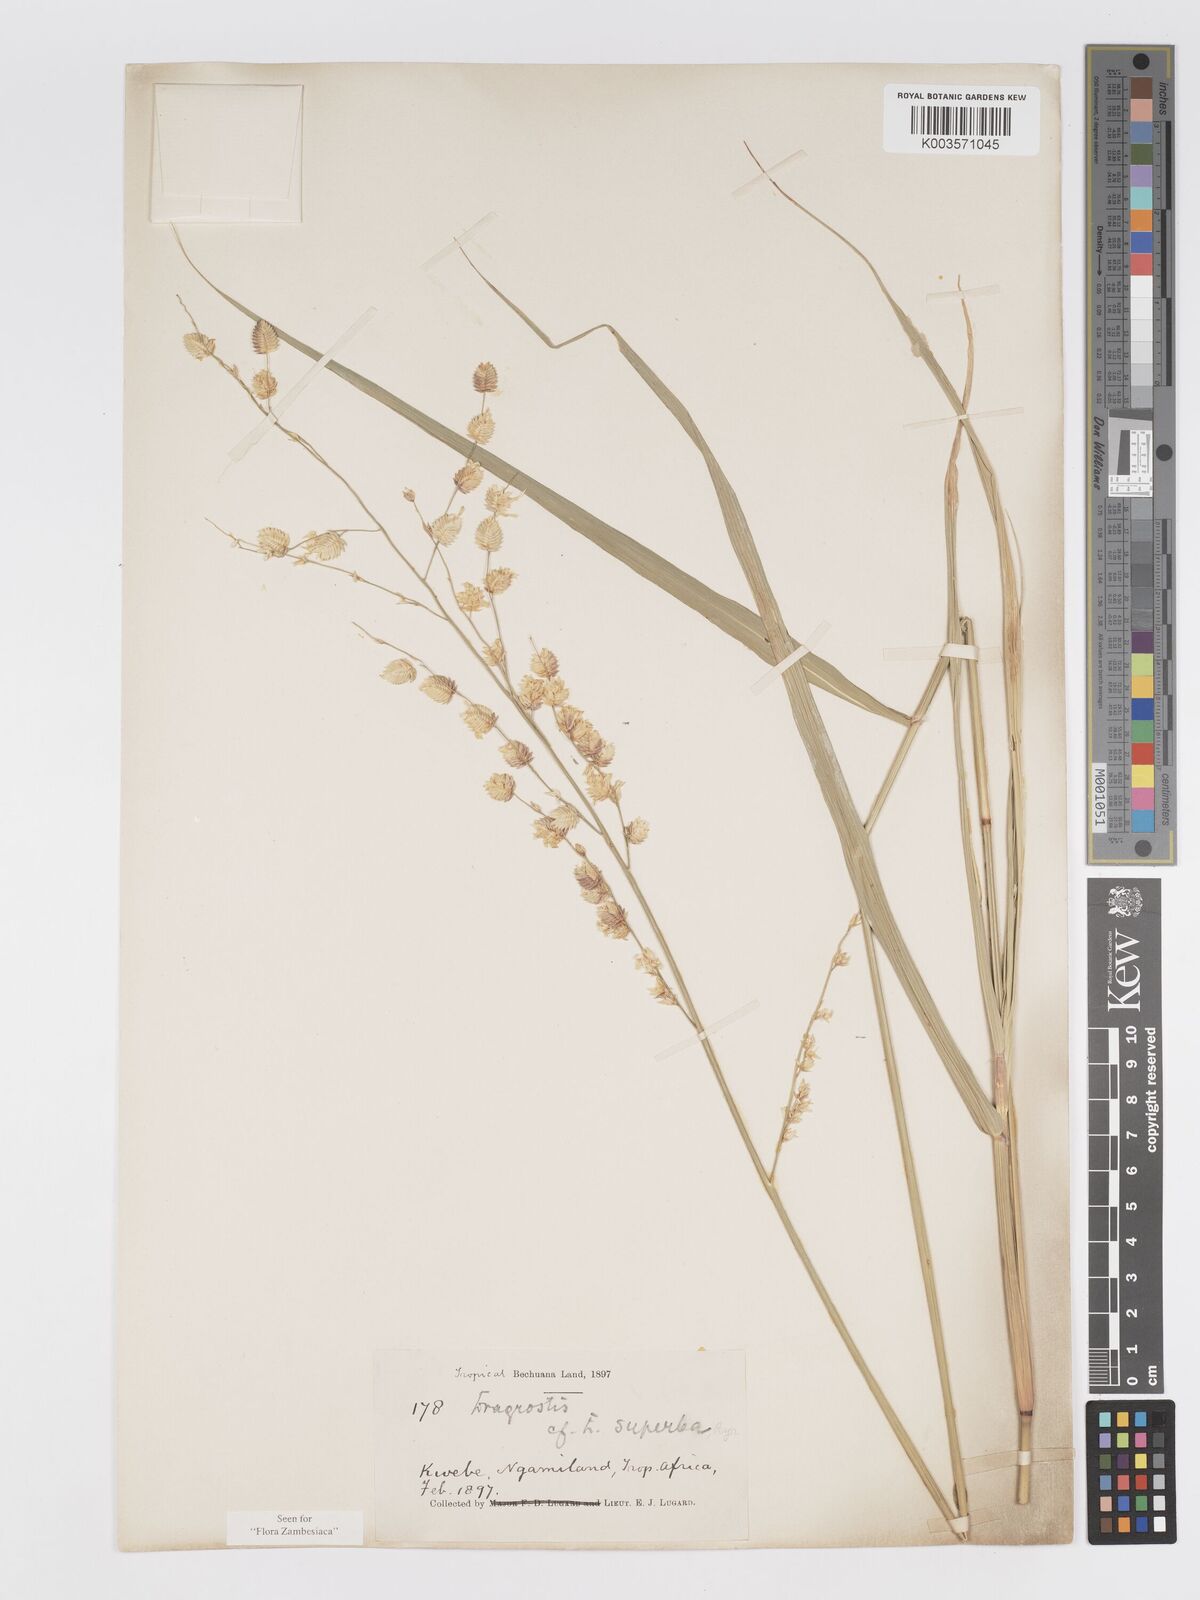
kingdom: Plantae
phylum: Tracheophyta
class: Liliopsida
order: Poales
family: Poaceae
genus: Eragrostis
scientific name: Eragrostis superba
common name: Wilman lovegrass
